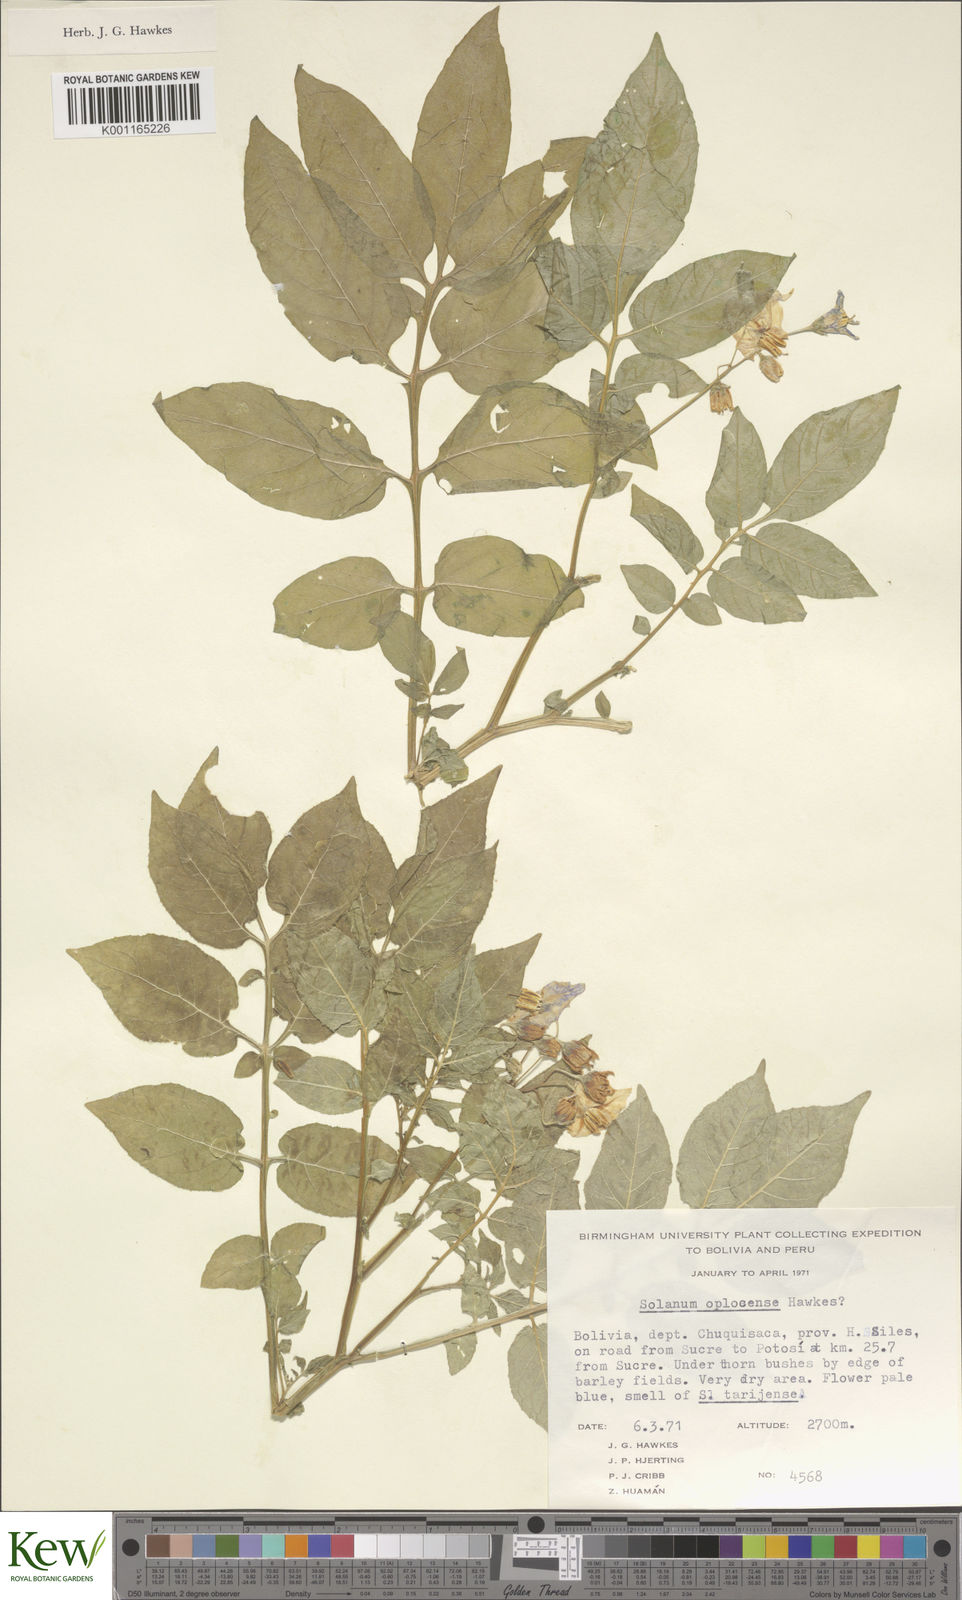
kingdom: Plantae
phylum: Tracheophyta
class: Magnoliopsida
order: Solanales
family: Solanaceae
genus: Solanum
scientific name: Solanum brevicaule
